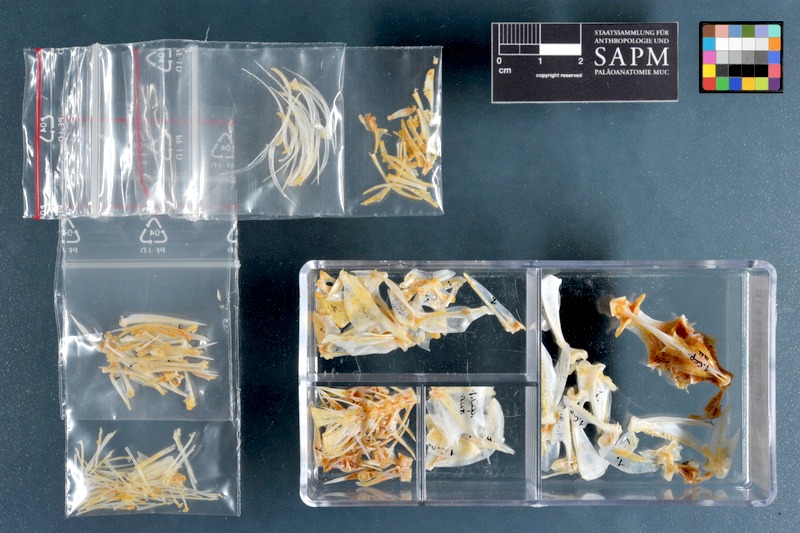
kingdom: Animalia
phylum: Chordata
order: Perciformes
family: Serranidae
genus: Cephalopholis
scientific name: Cephalopholis aurantia
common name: Golden hind
